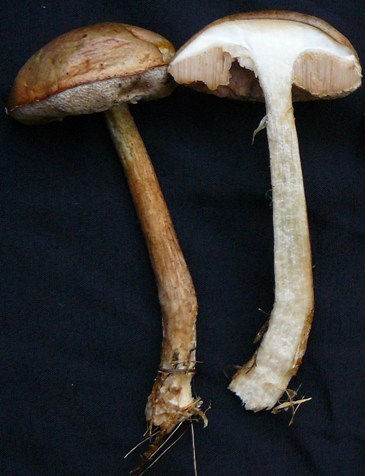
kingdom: Fungi
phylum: Basidiomycota
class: Agaricomycetes
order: Boletales
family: Boletaceae
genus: Leccinum
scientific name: Leccinum cyaneobasileucum
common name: almindelig skælrørhat
